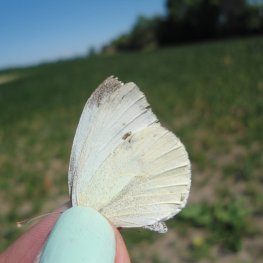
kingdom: Animalia
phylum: Arthropoda
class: Insecta
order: Lepidoptera
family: Pieridae
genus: Pieris
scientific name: Pieris rapae
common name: Cabbage White
